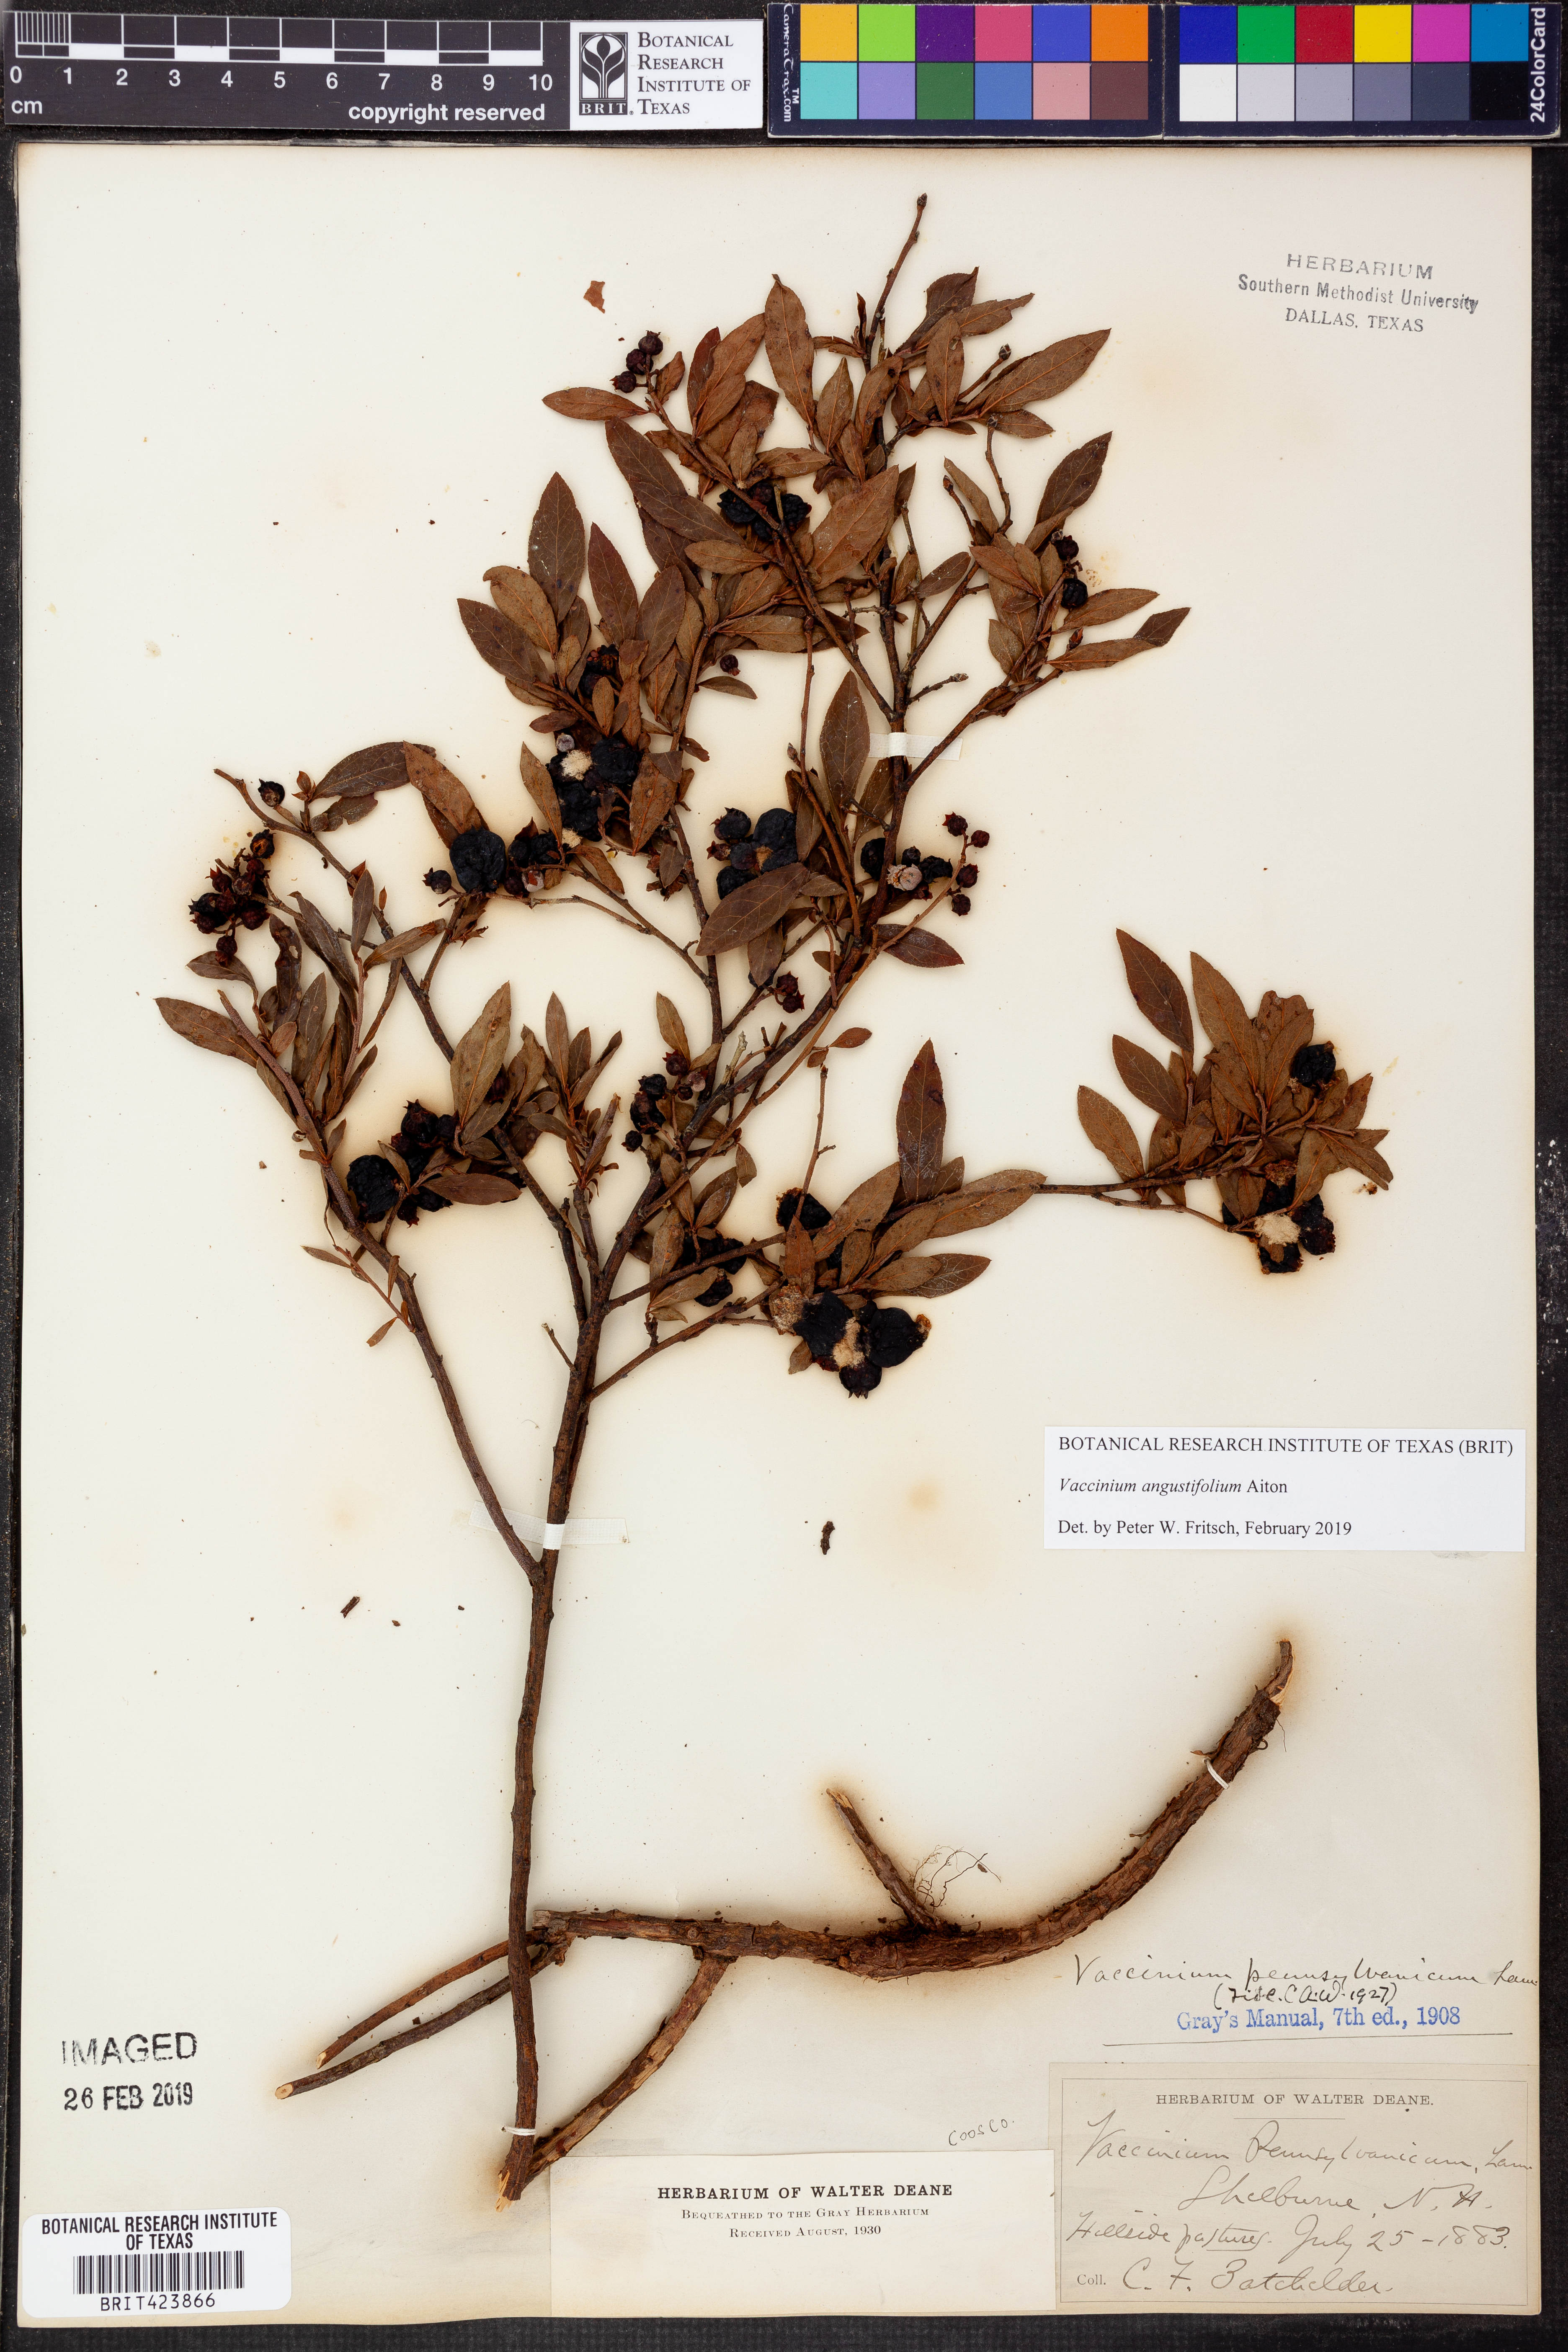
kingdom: Plantae
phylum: Tracheophyta
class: Magnoliopsida
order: Ericales
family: Ericaceae
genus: Vaccinium
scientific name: Vaccinium angustifolium
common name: Early lowbush blueberry
